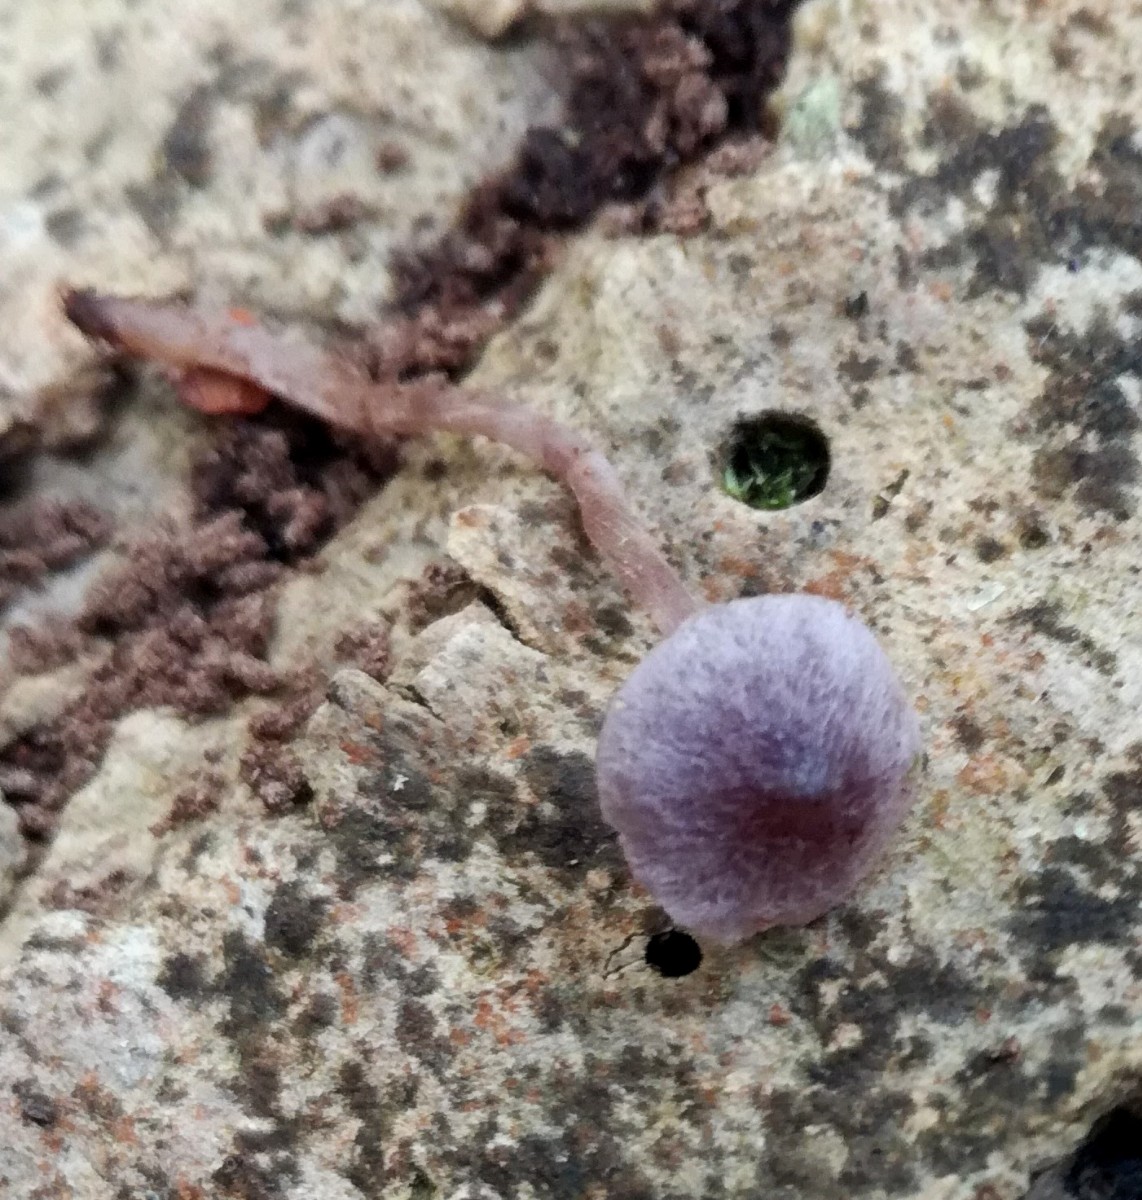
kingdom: Fungi
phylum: Basidiomycota
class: Agaricomycetes
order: Agaricales
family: Cortinariaceae
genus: Cortinarius
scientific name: Cortinarius bibulus
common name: smuk slørhat
